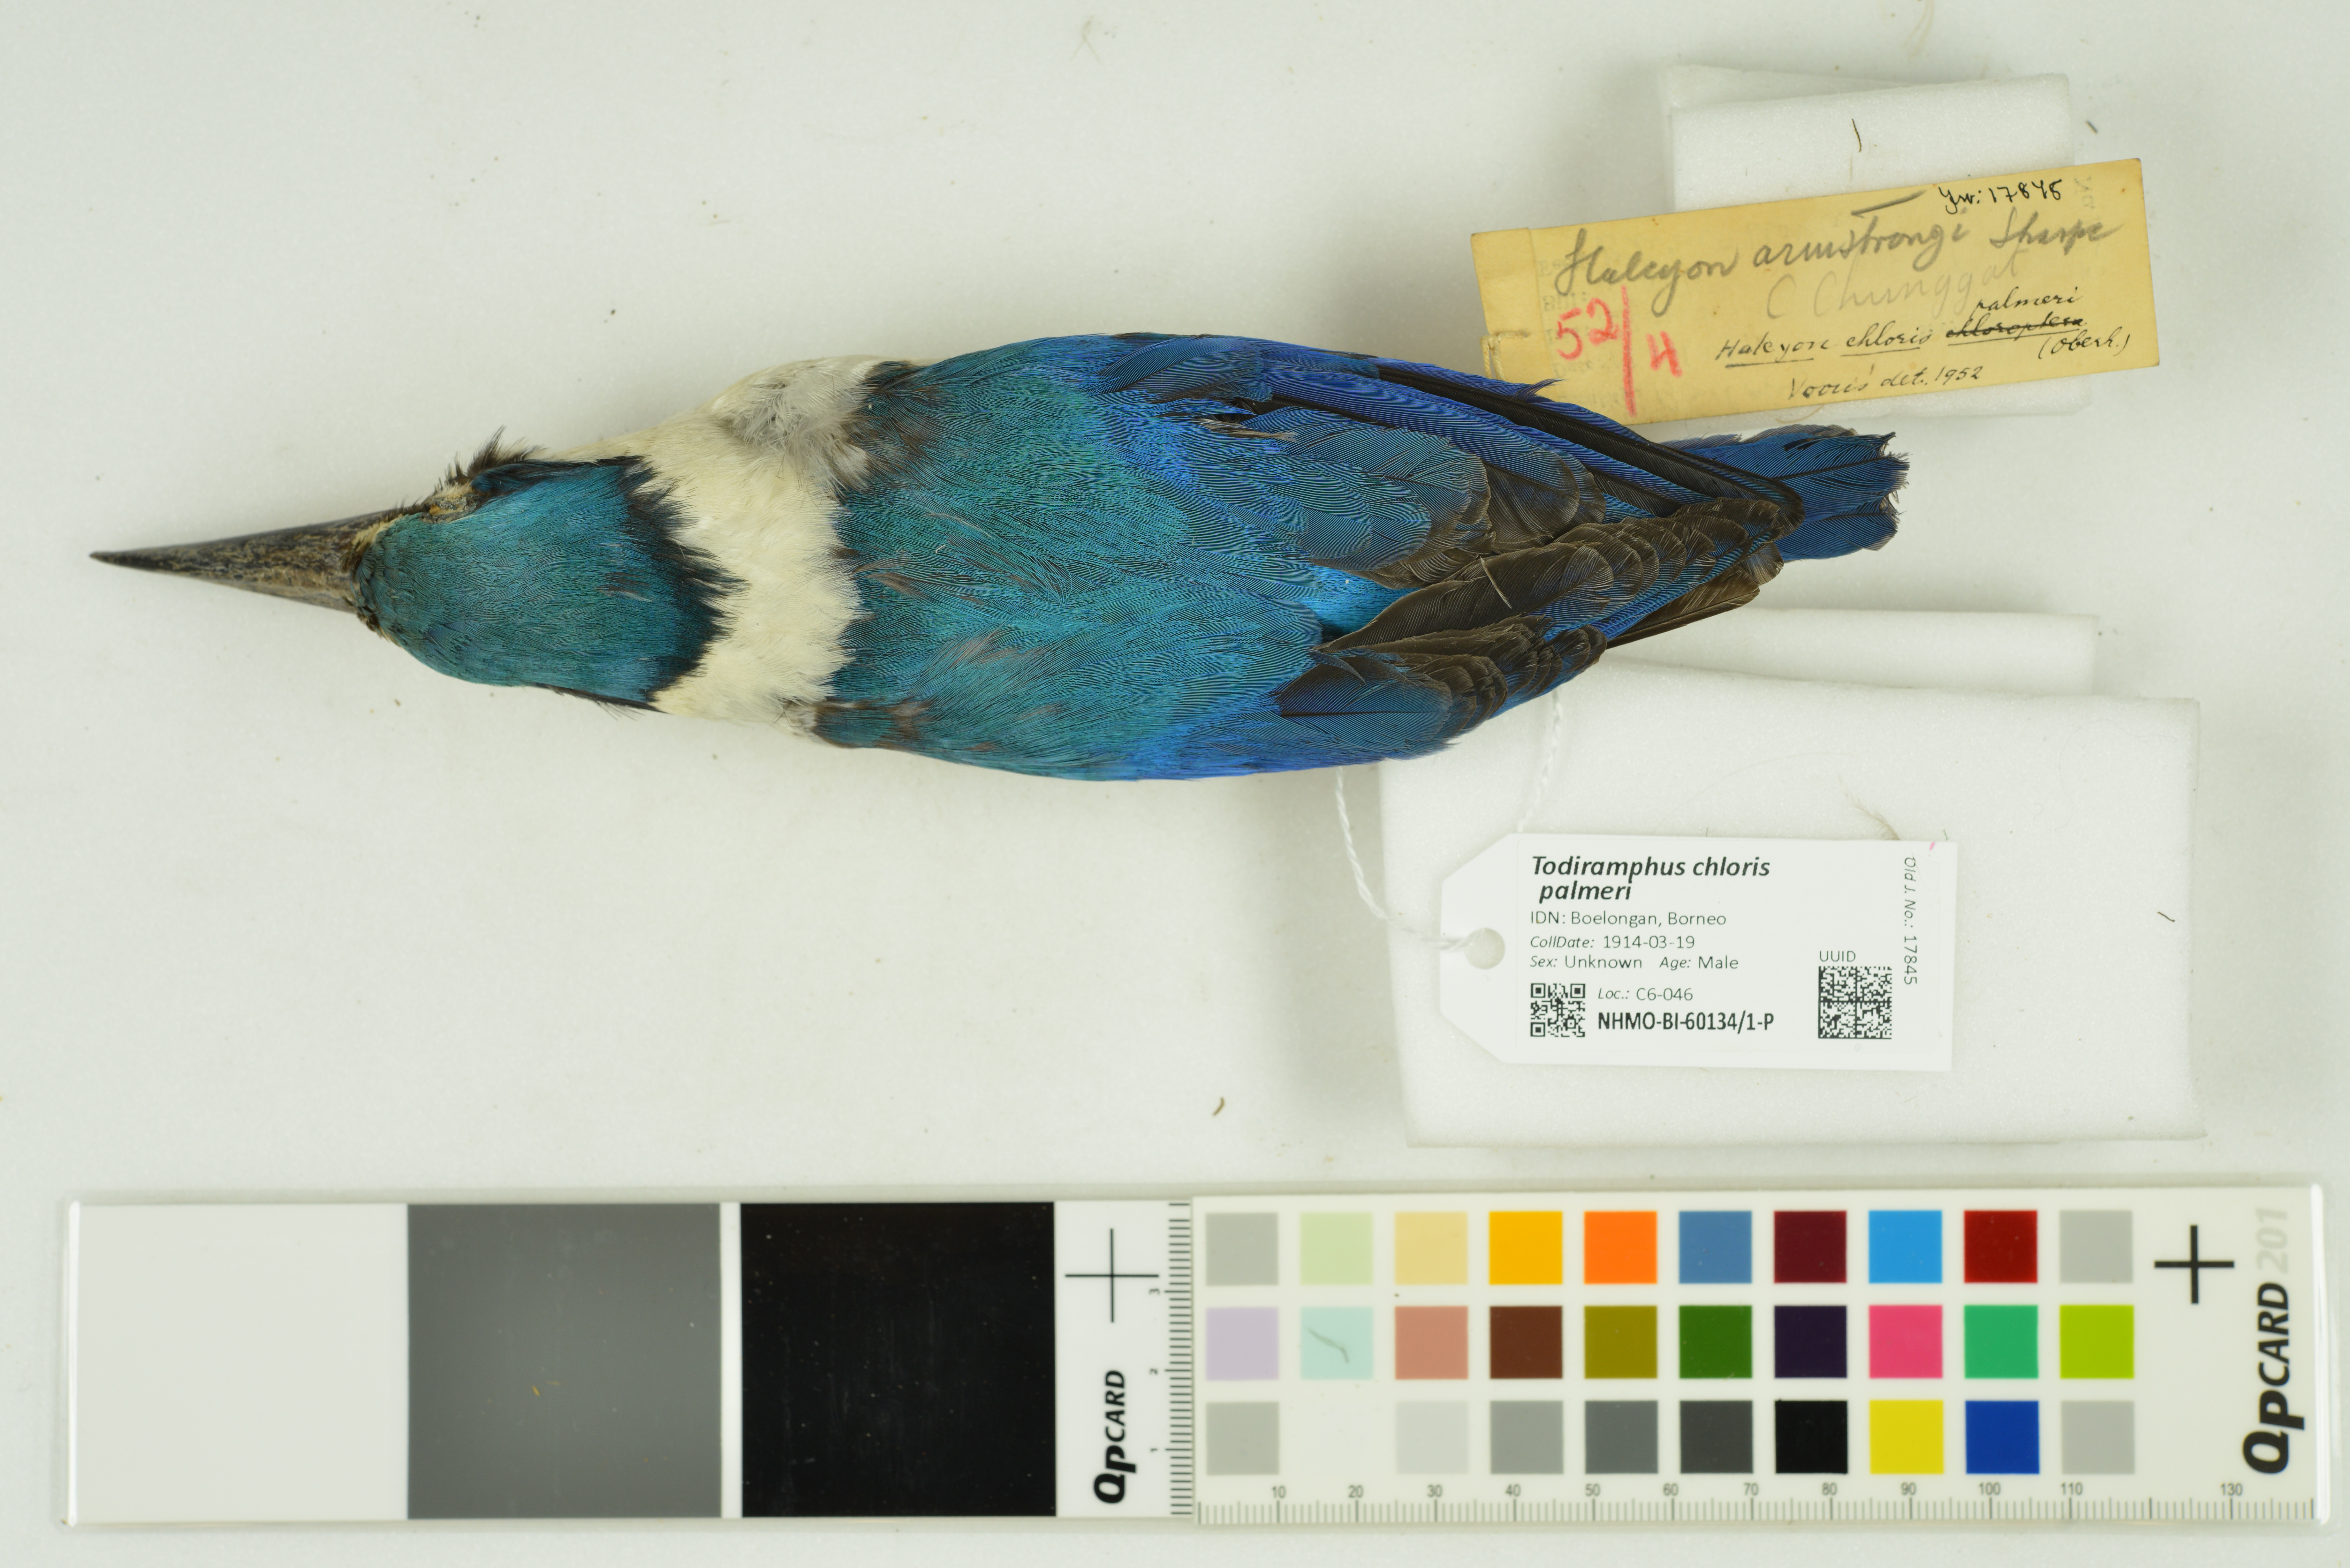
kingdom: Animalia
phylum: Chordata
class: Aves
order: Coraciiformes
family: Alcedinidae
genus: Todiramphus
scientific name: Todiramphus chloris
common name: Collared kingfisher
